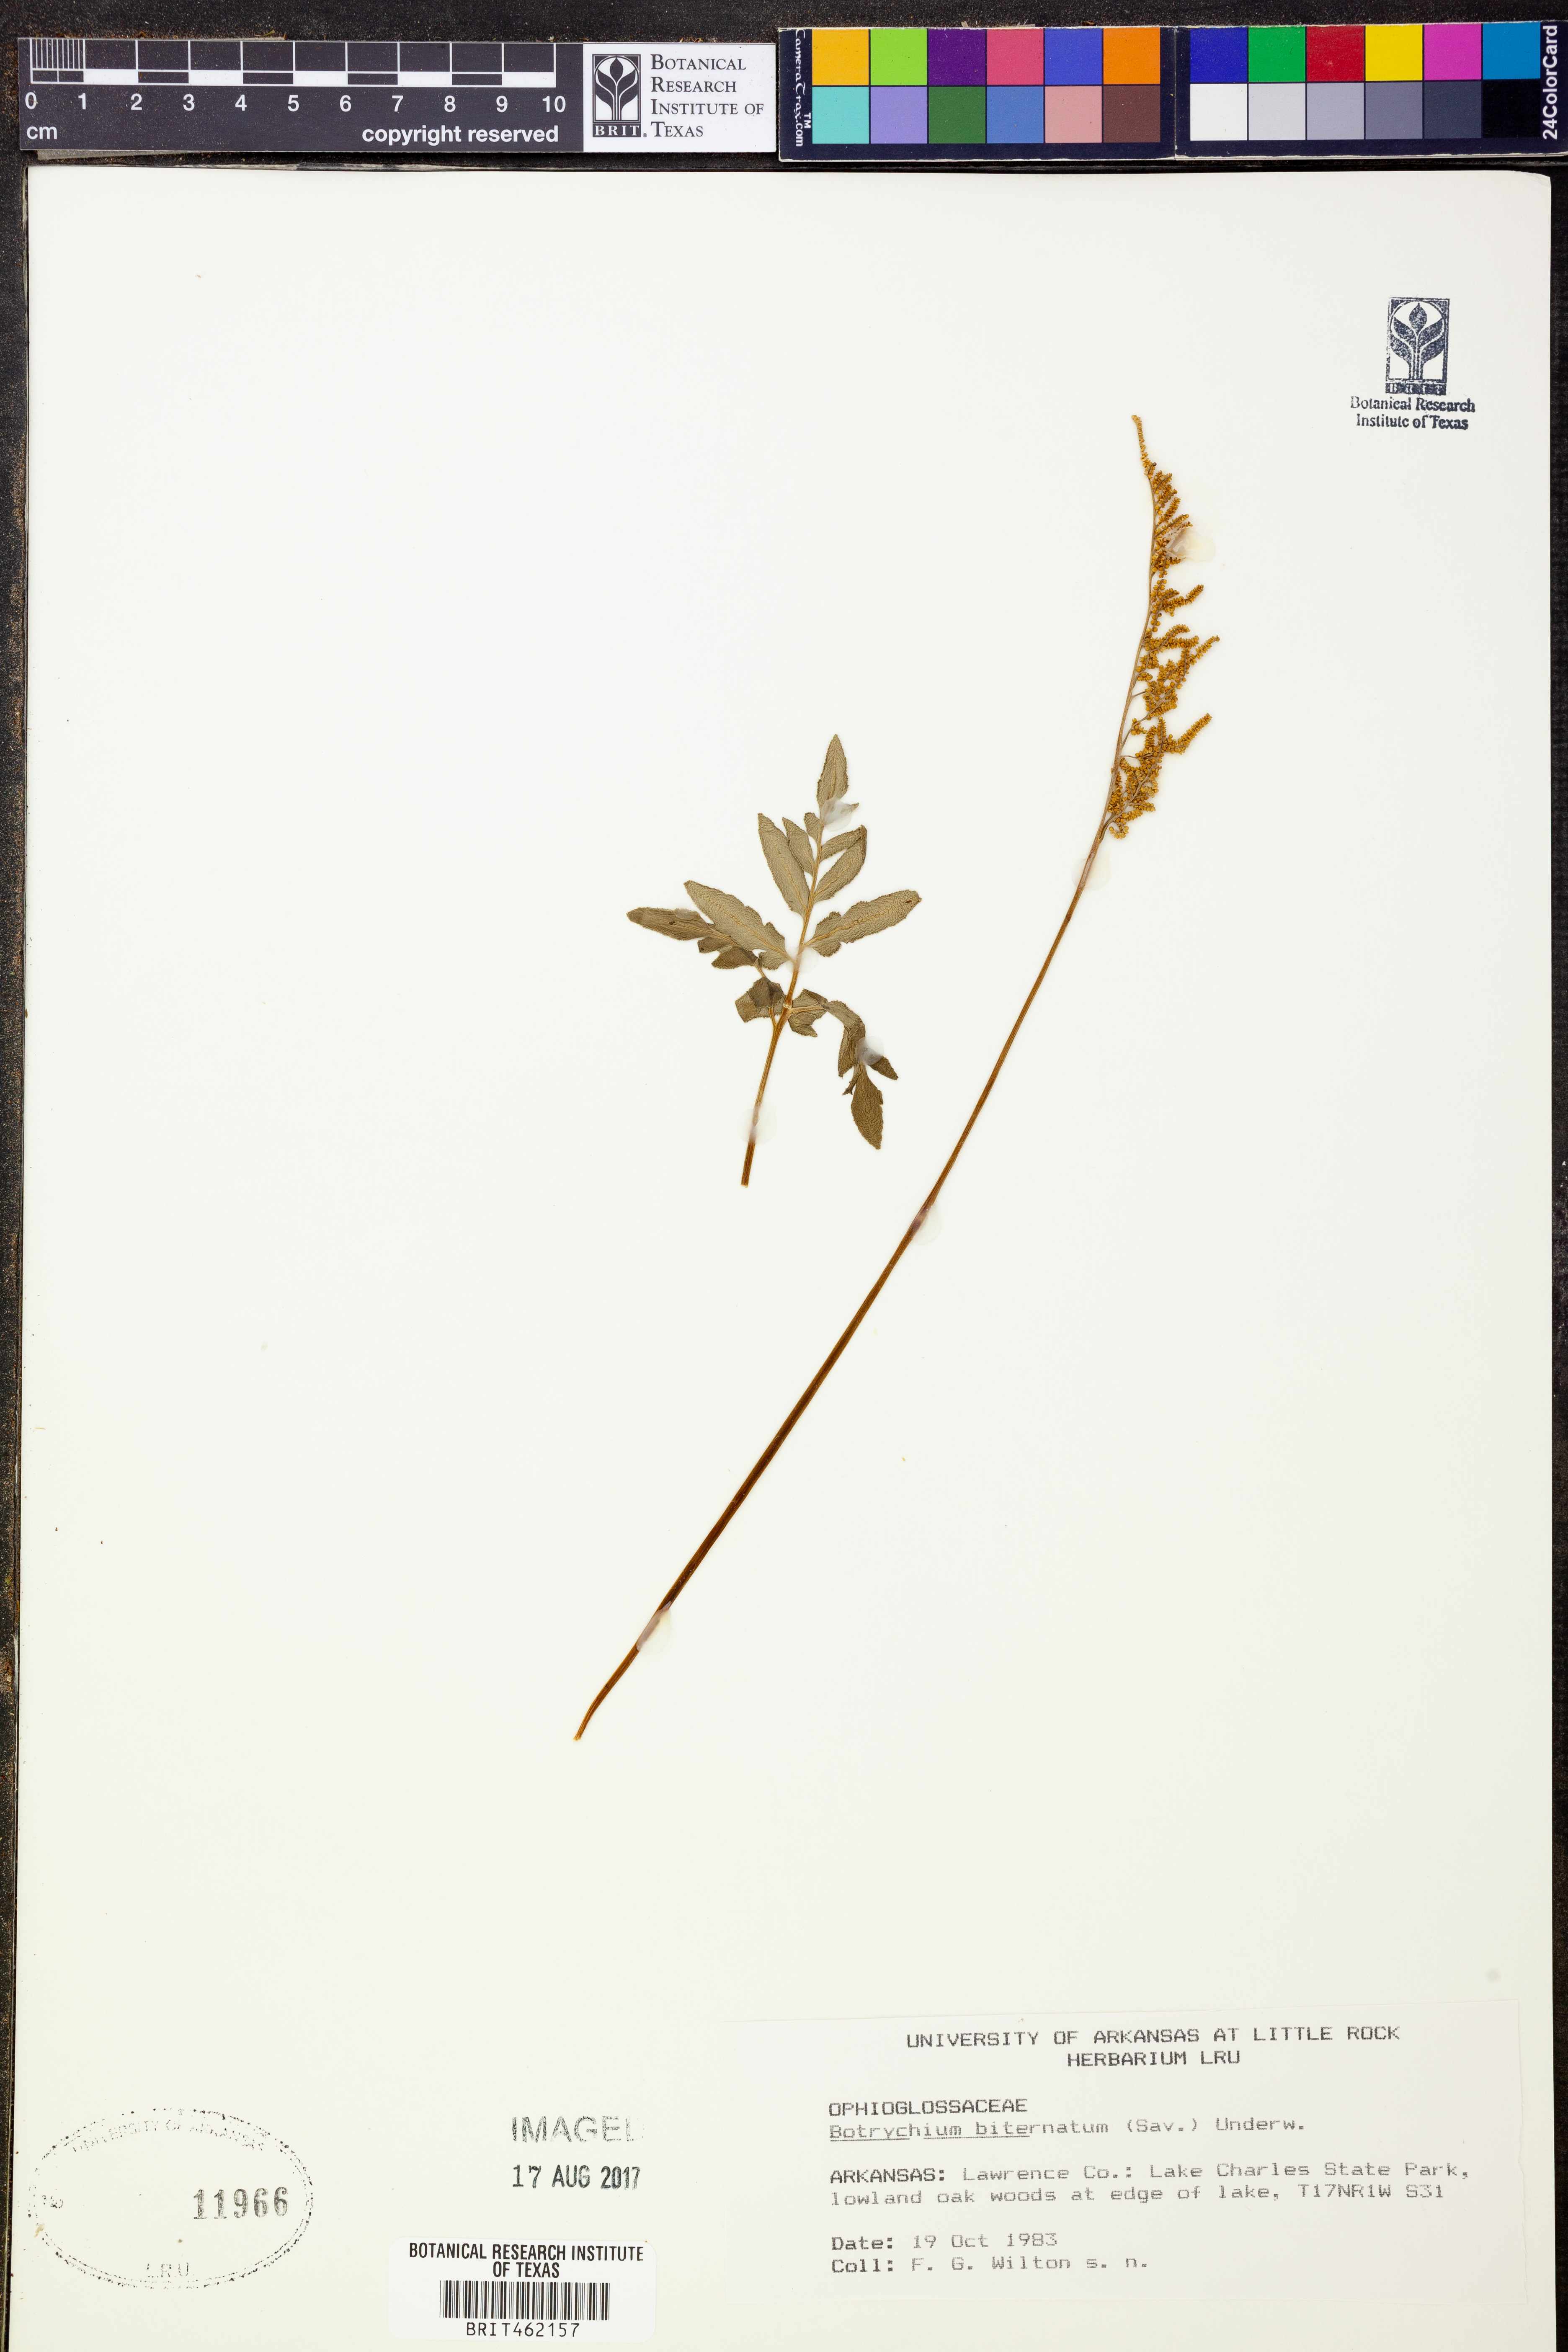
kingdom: Plantae
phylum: Tracheophyta
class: Polypodiopsida
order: Ophioglossales
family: Ophioglossaceae
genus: Sceptridium
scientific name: Sceptridium biternatum
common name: Sparse-lobed grapefern
